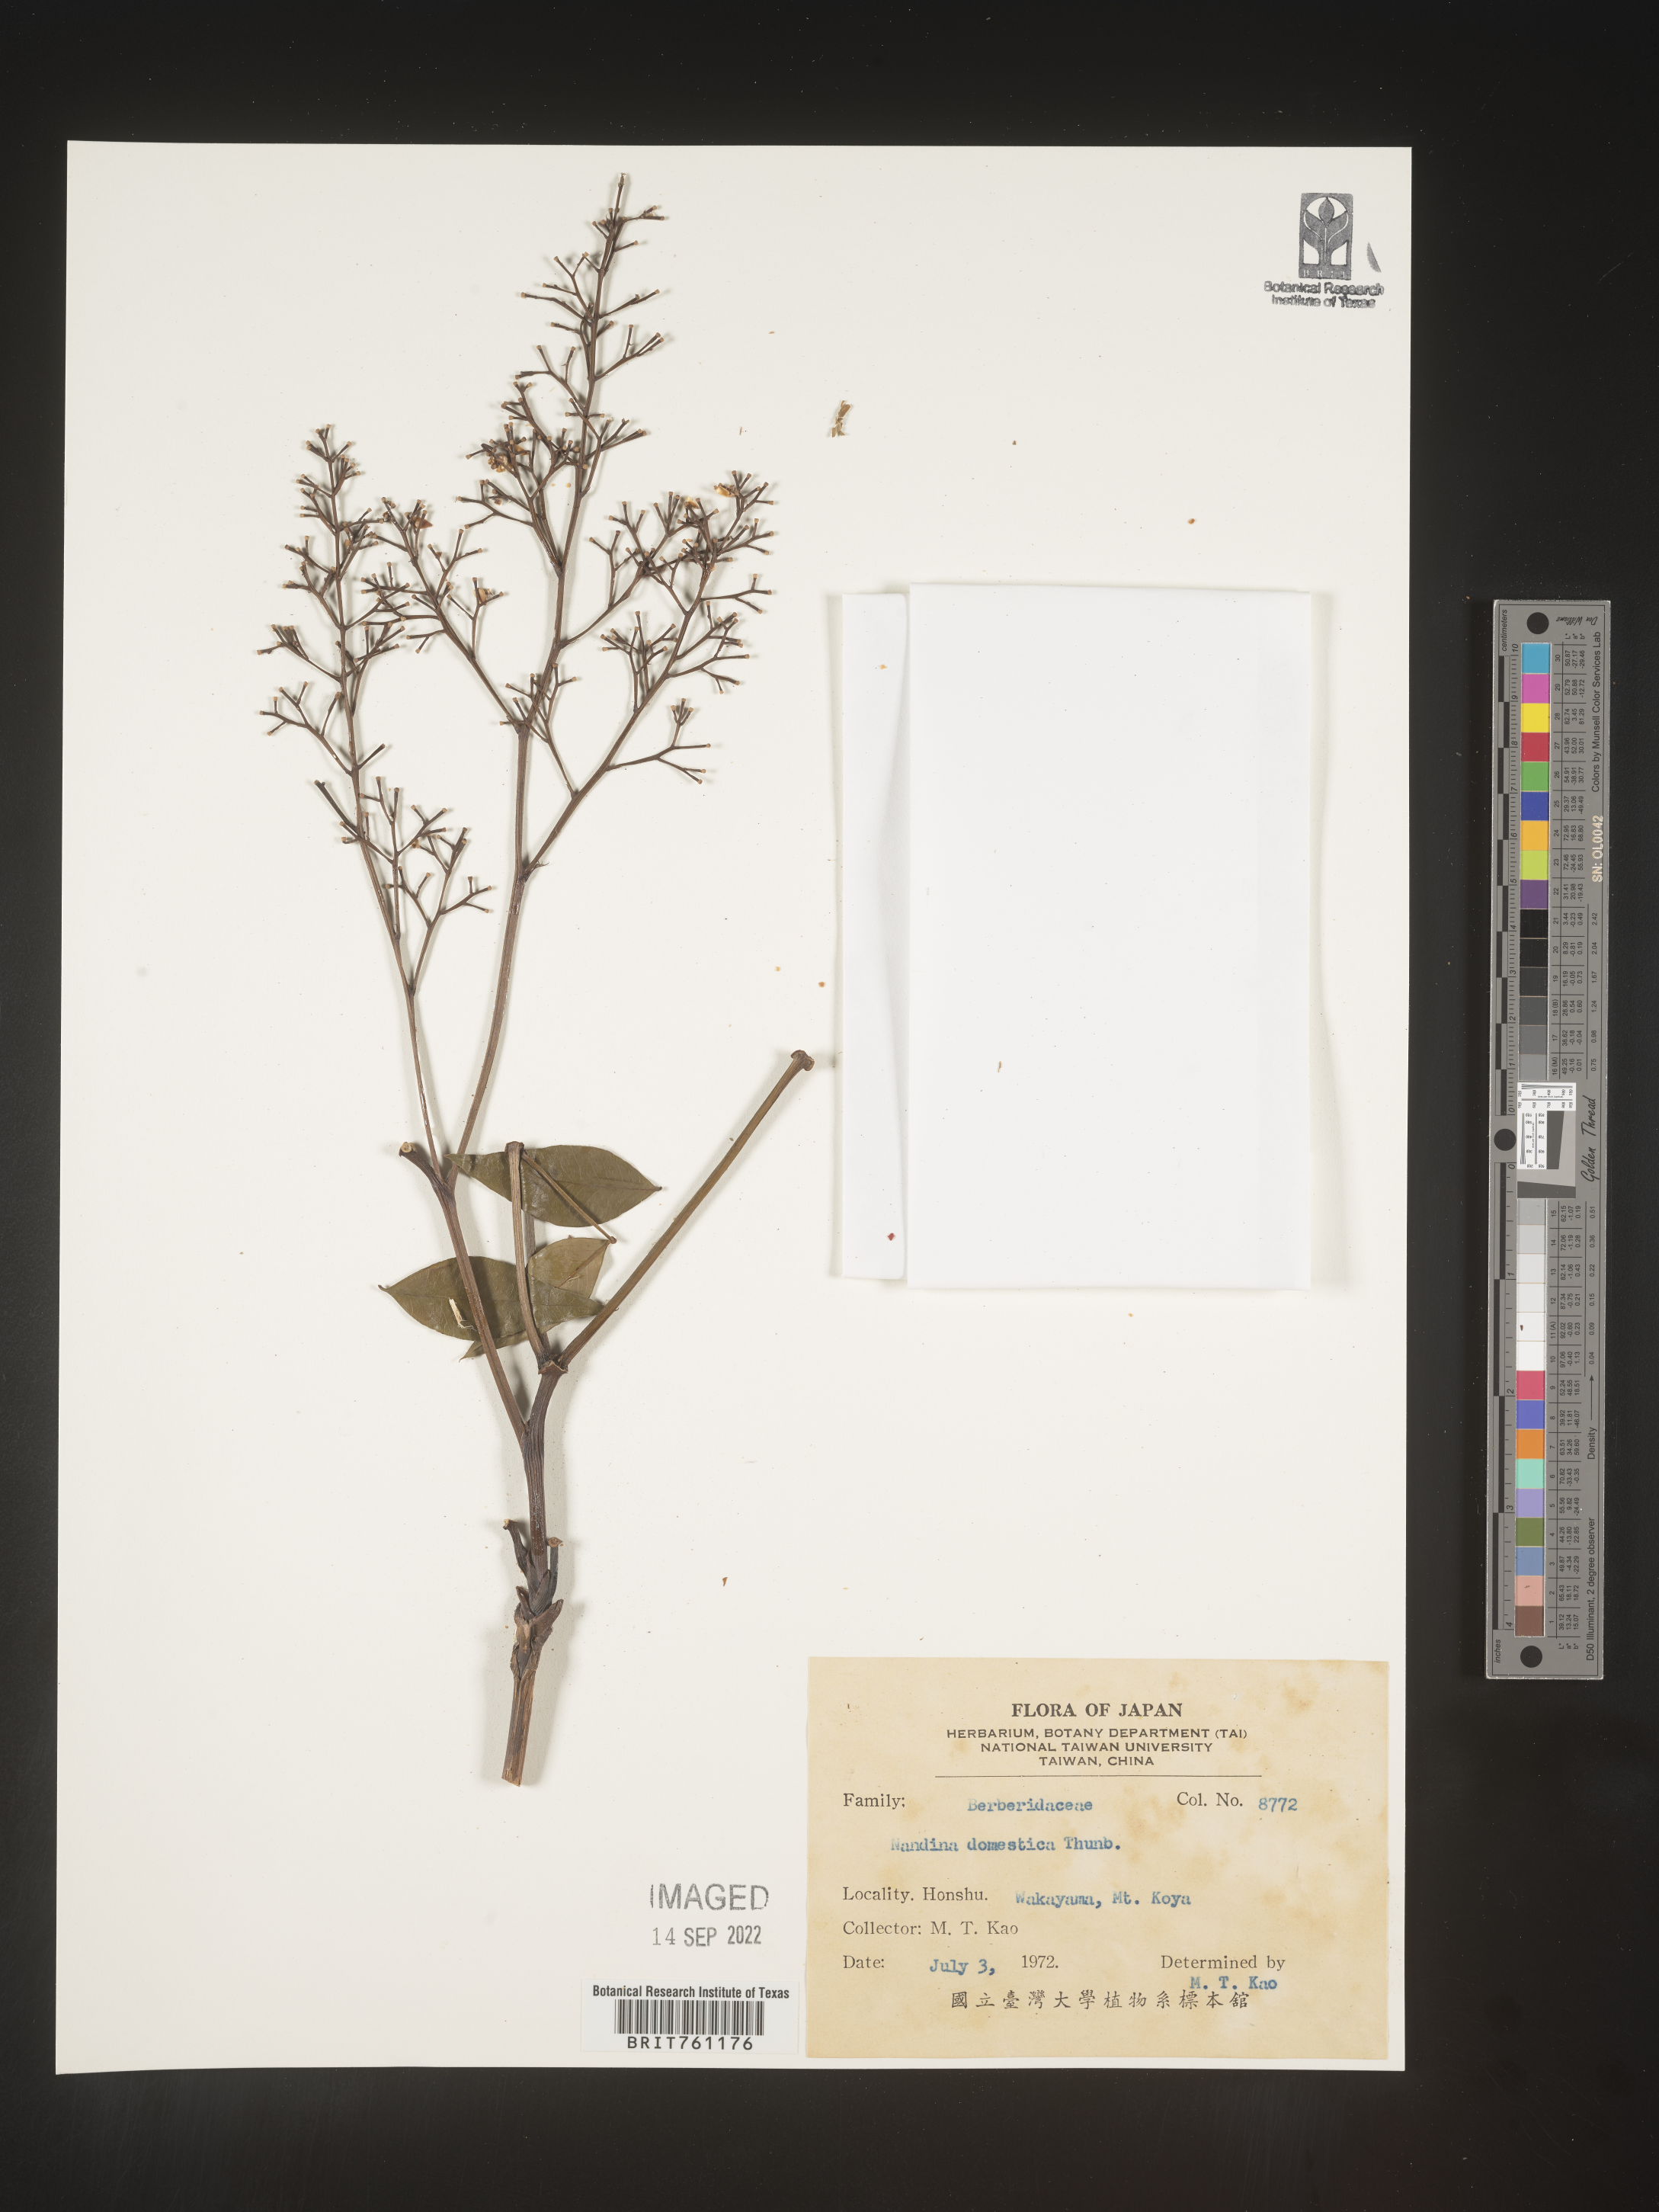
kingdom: Plantae
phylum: Tracheophyta
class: Magnoliopsida
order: Ranunculales
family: Berberidaceae
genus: Nandina
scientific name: Nandina
